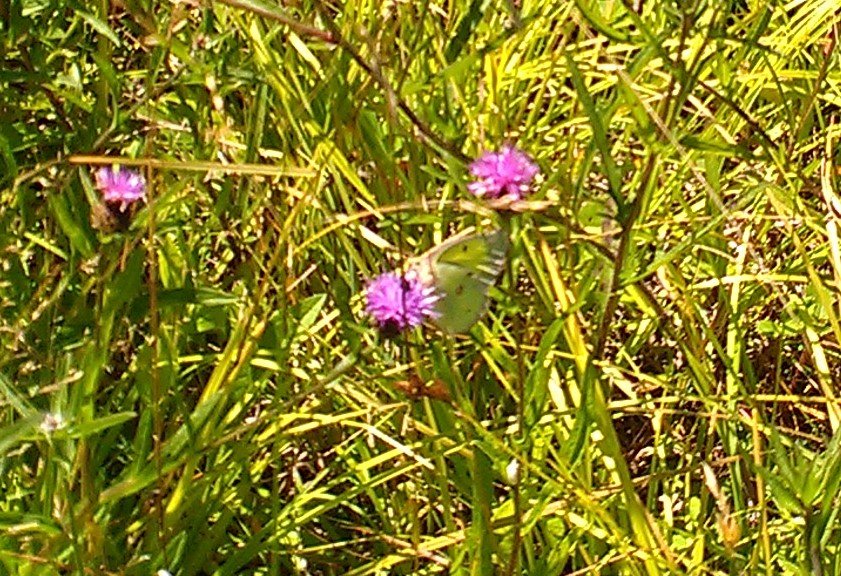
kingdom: Animalia
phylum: Arthropoda
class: Insecta
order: Lepidoptera
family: Pieridae
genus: Colias
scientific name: Colias philodice
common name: Clouded Sulphur
